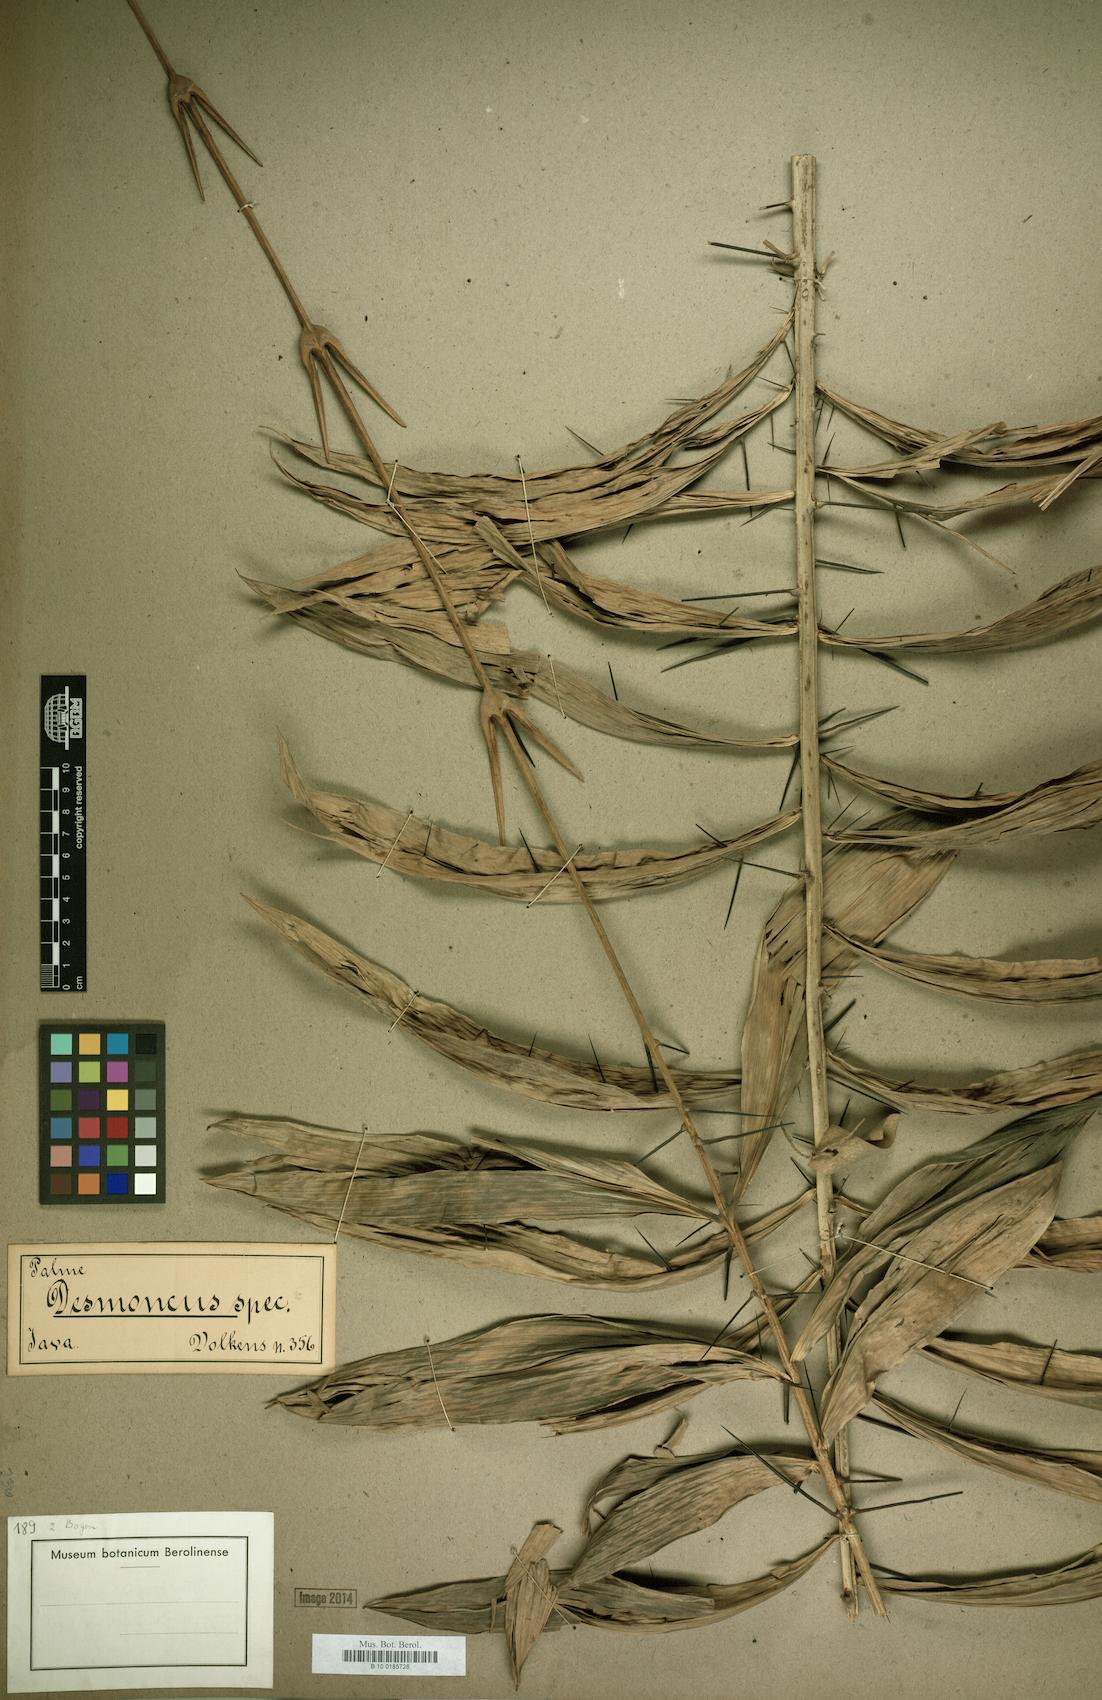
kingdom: Plantae
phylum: Tracheophyta
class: Liliopsida
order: Arecales
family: Arecaceae
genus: Desmoncus
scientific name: Desmoncus
